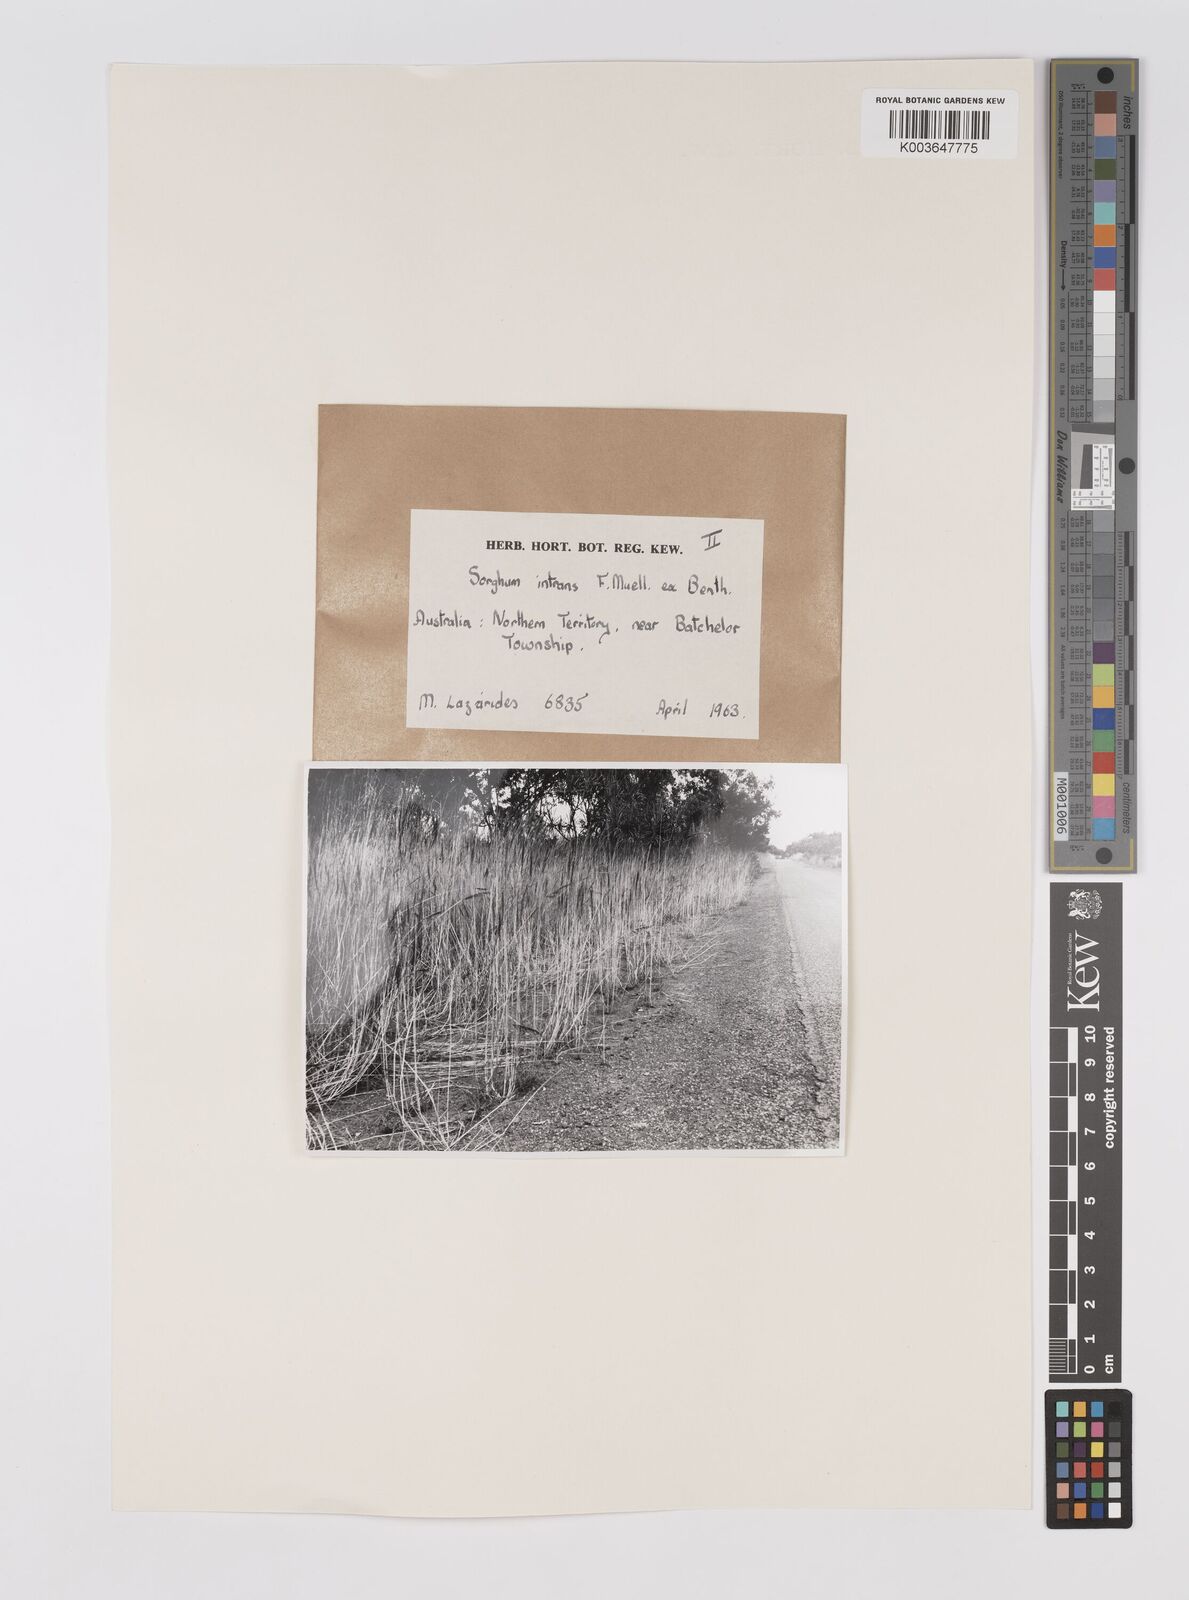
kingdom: Plantae
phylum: Tracheophyta
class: Liliopsida
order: Poales
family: Poaceae
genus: Sarga
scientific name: Sarga intrans
